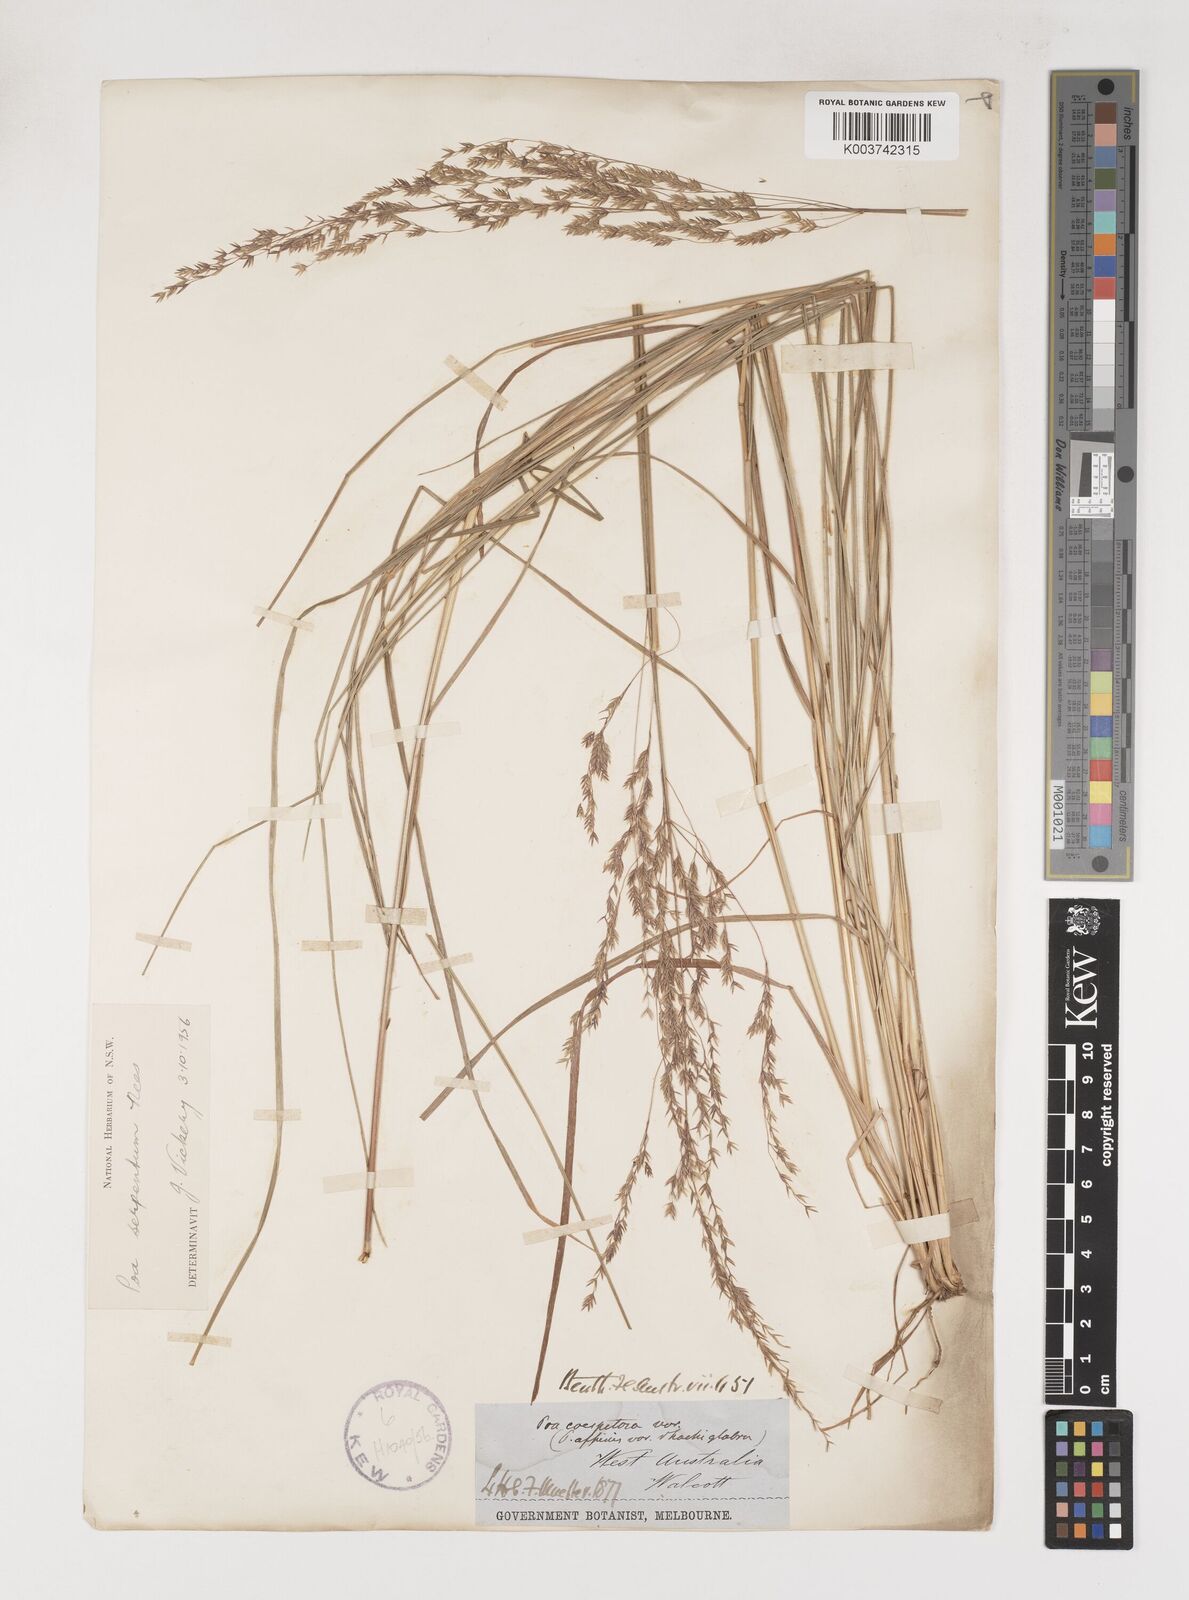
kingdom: Plantae
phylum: Tracheophyta
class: Liliopsida
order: Poales
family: Poaceae
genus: Poa
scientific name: Poa porphyroclados
